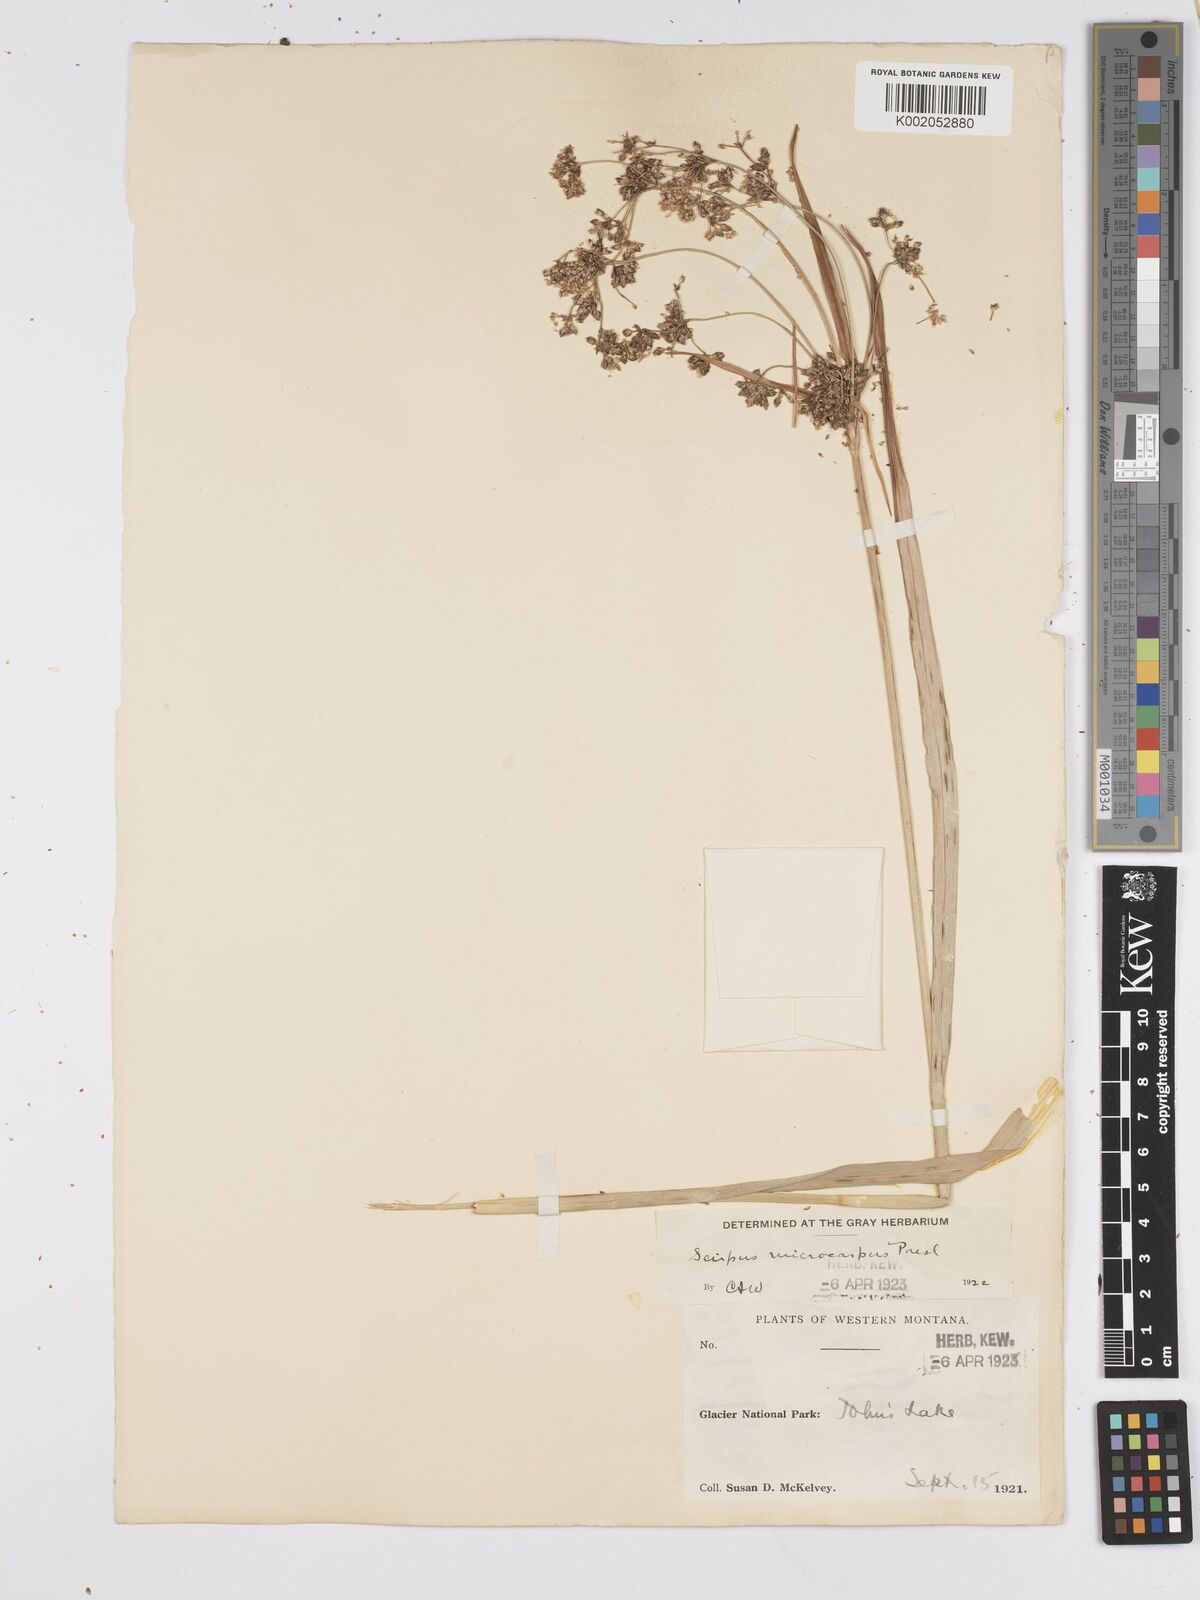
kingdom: Plantae
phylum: Tracheophyta
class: Liliopsida
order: Poales
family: Cyperaceae
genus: Scirpus
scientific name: Scirpus microcarpus
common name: Panicled bulrush
